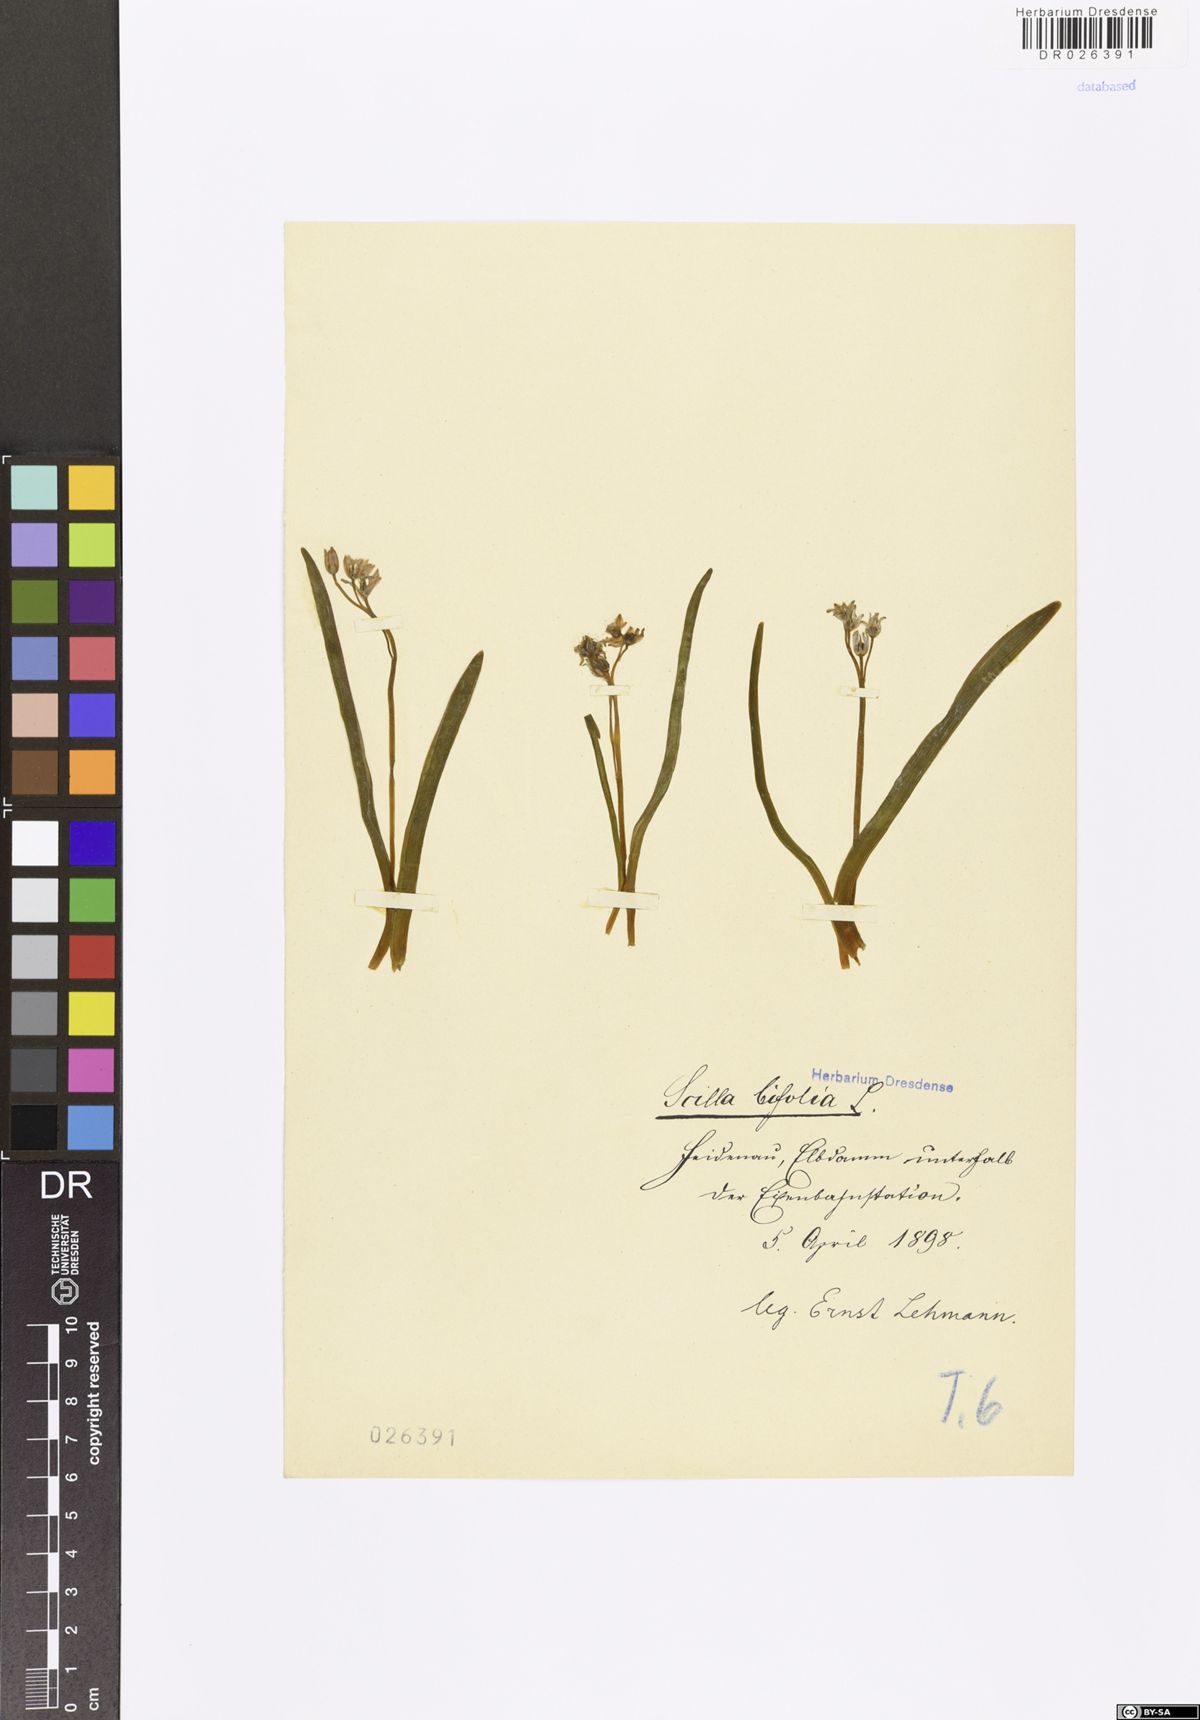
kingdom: Plantae
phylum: Tracheophyta
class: Liliopsida
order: Asparagales
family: Asparagaceae
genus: Scilla
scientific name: Scilla vindobonensis
